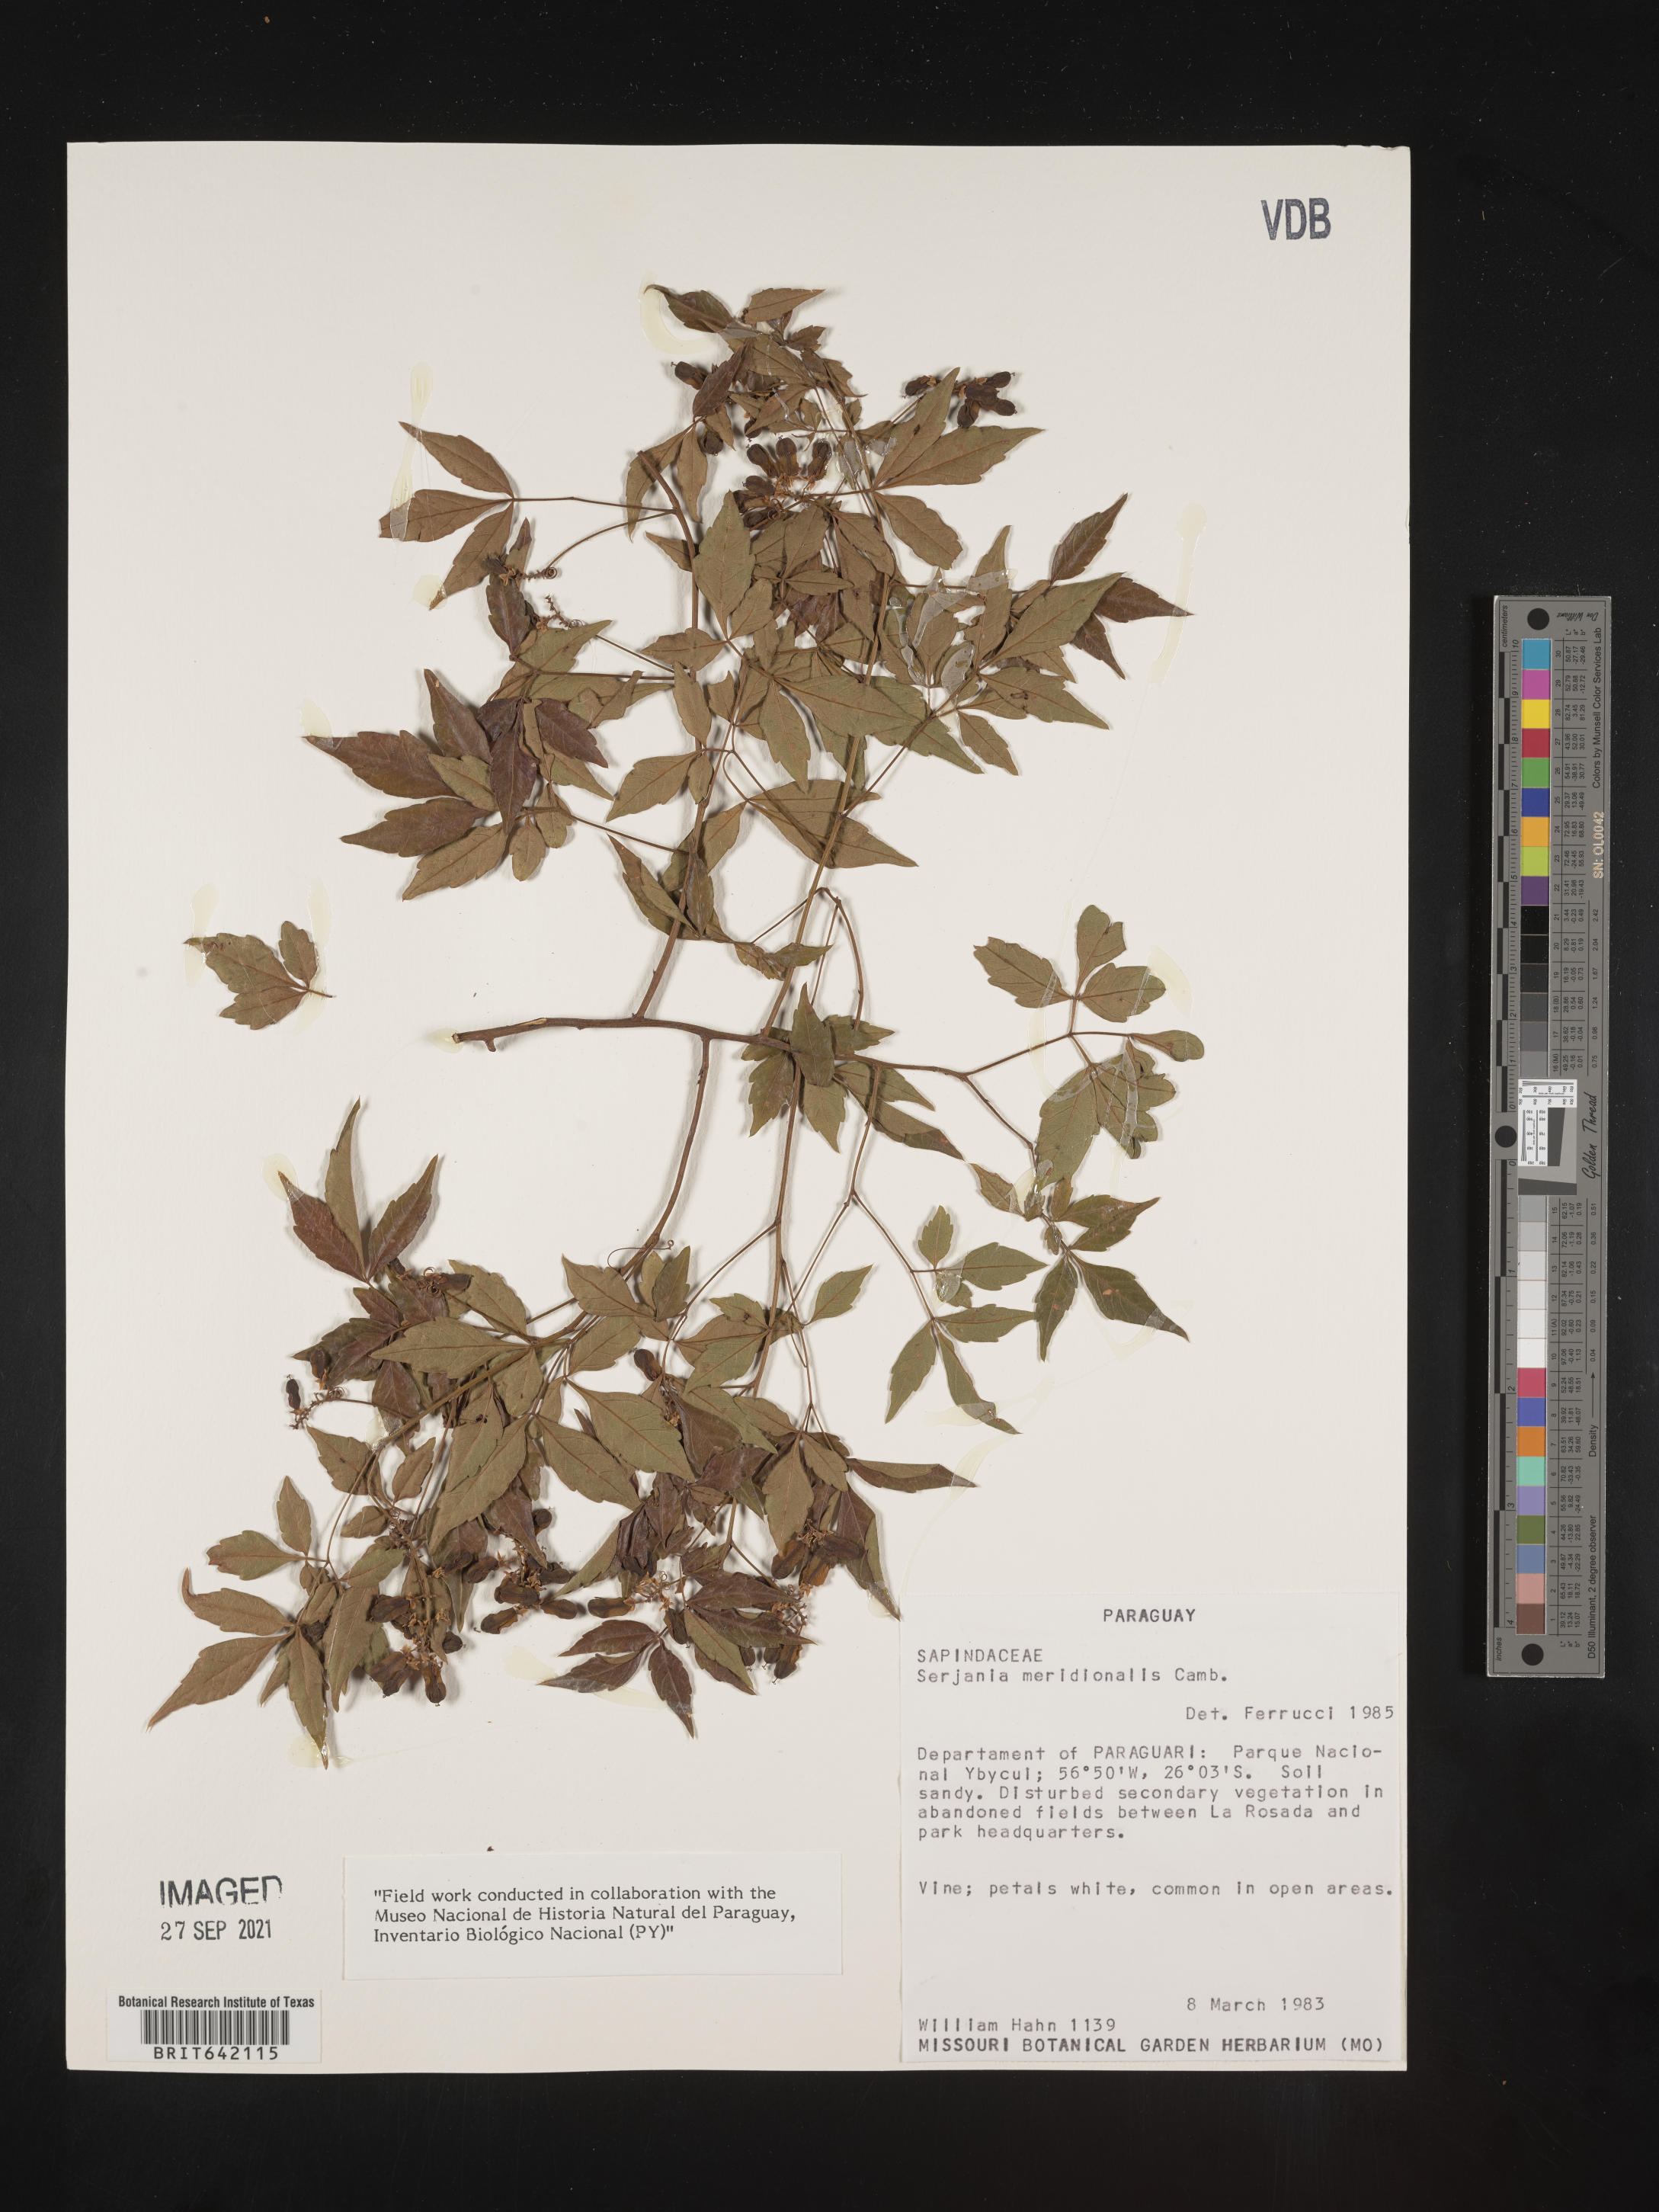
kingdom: Plantae
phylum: Tracheophyta
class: Magnoliopsida
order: Sapindales
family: Sapindaceae
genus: Serjania
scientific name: Serjania
